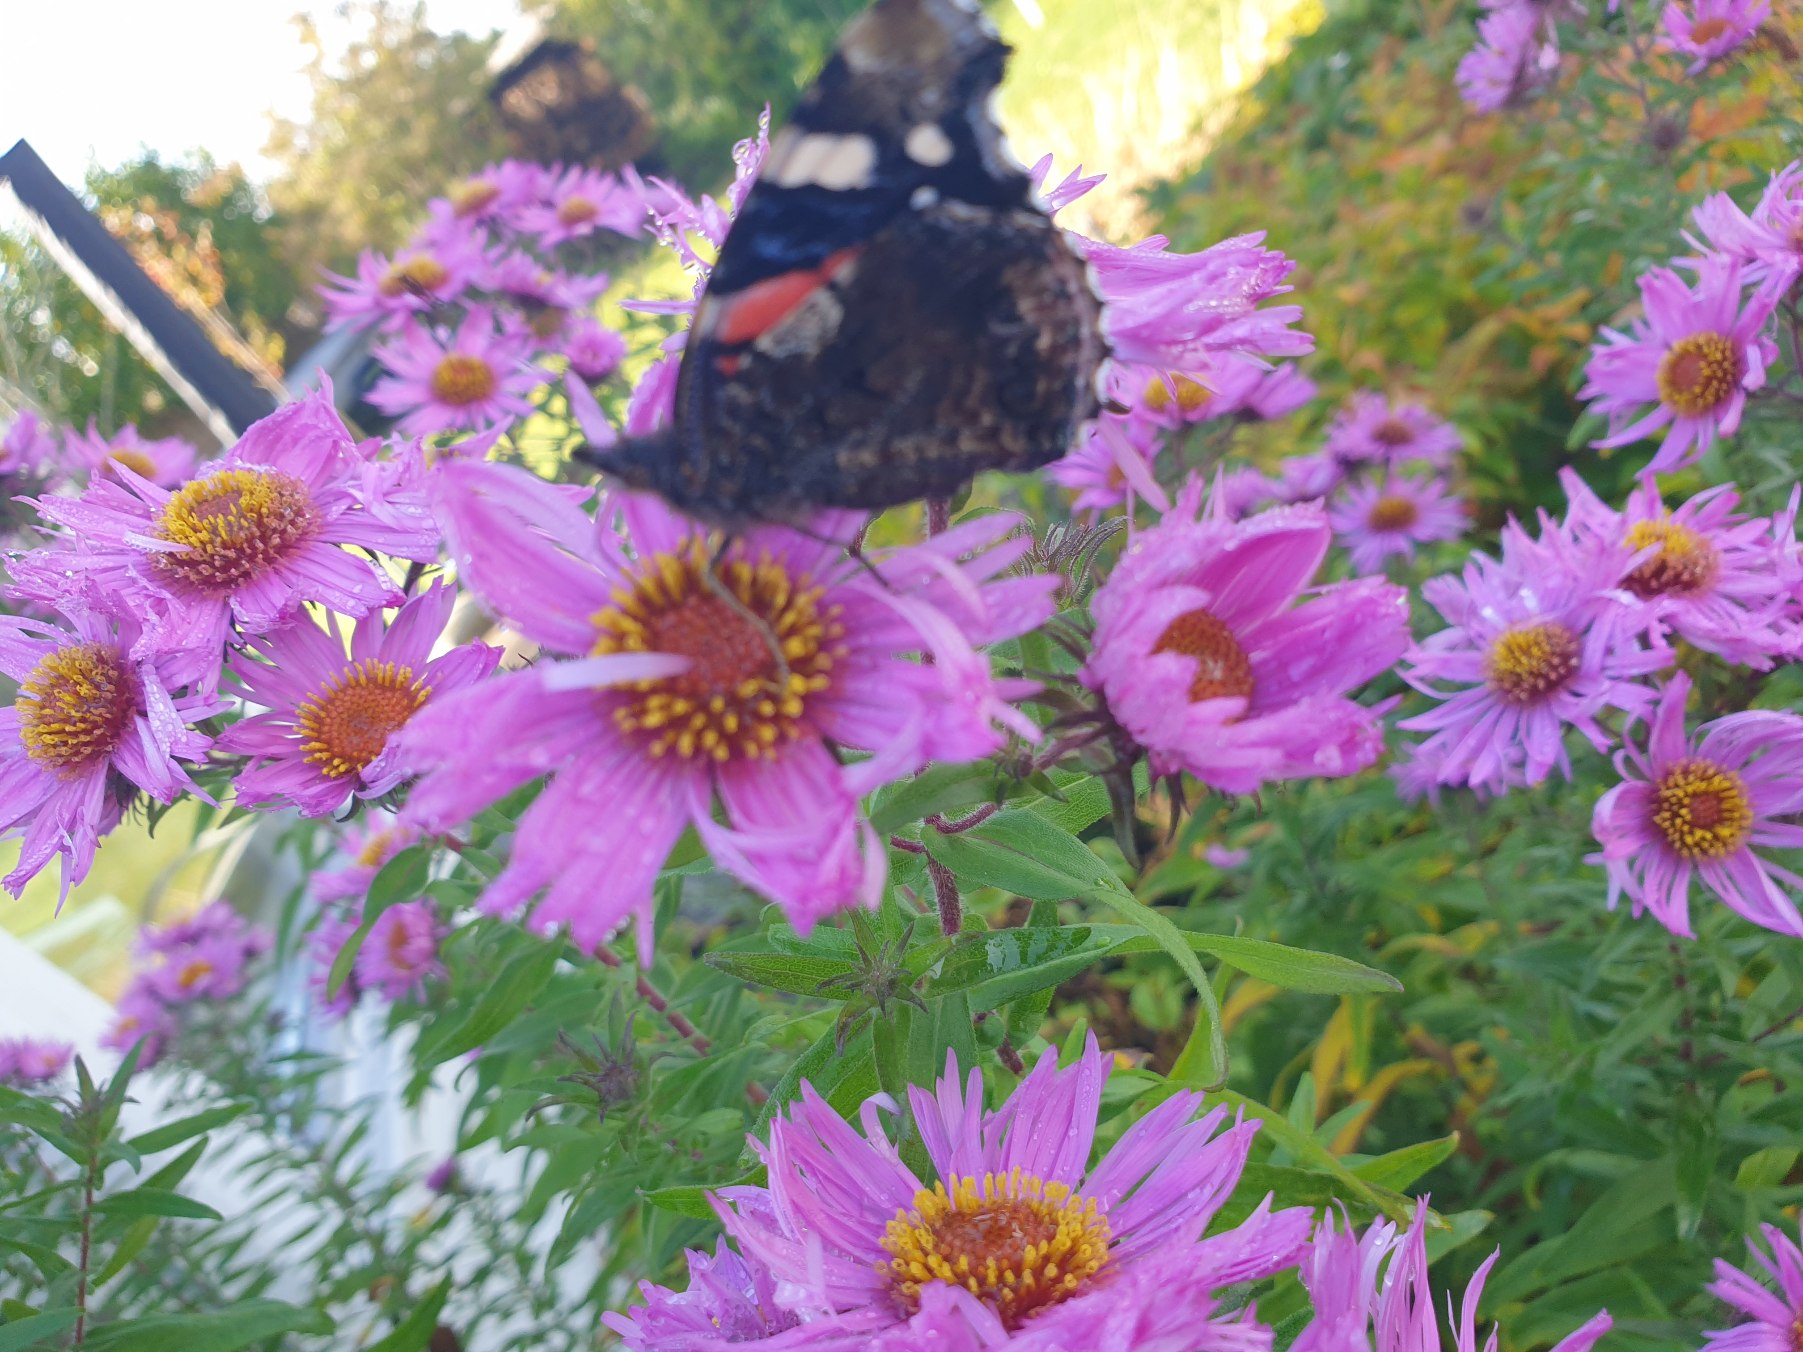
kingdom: Animalia
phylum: Arthropoda
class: Insecta
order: Lepidoptera
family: Nymphalidae
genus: Vanessa
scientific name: Vanessa atalanta
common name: Admiral
